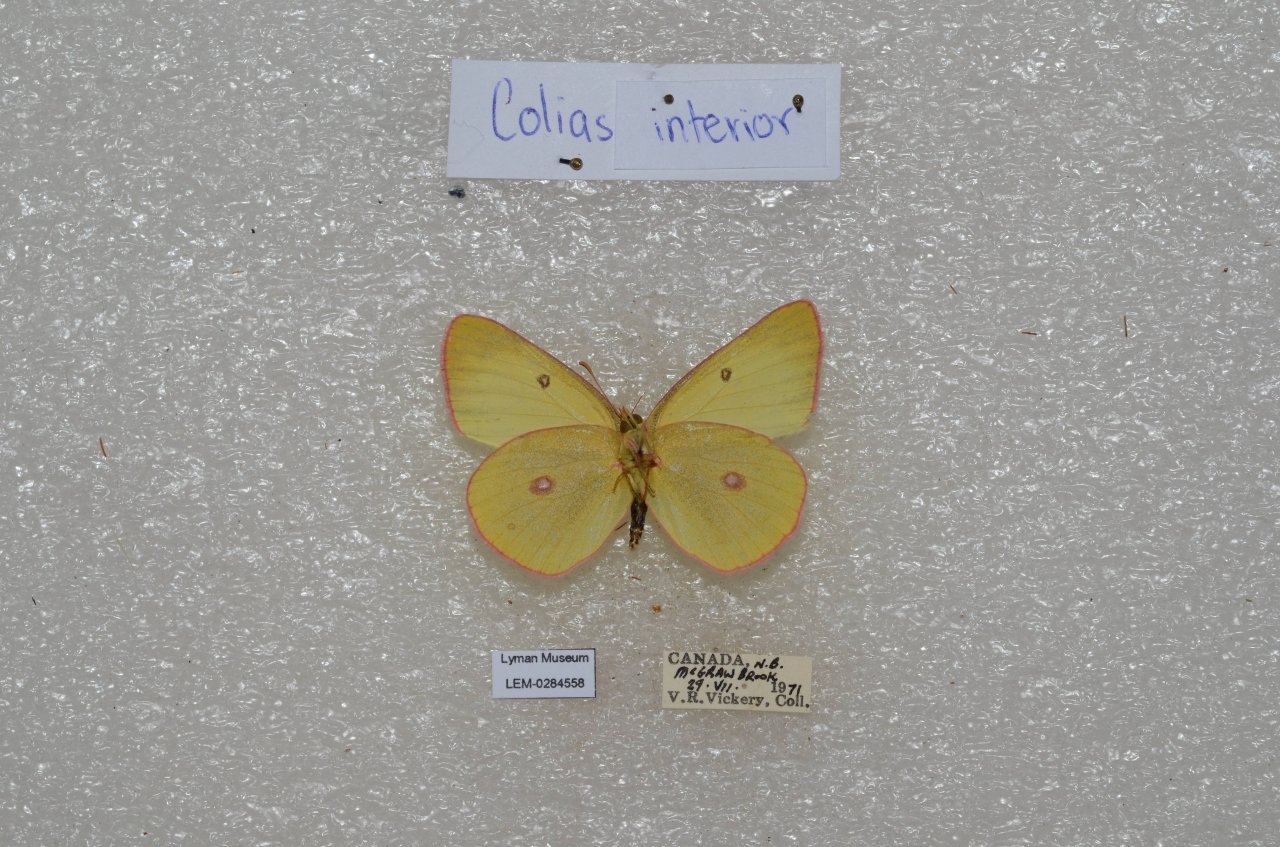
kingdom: Animalia
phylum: Arthropoda
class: Insecta
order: Lepidoptera
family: Pieridae
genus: Colias
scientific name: Colias interior
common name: Pink-edged Sulphur
